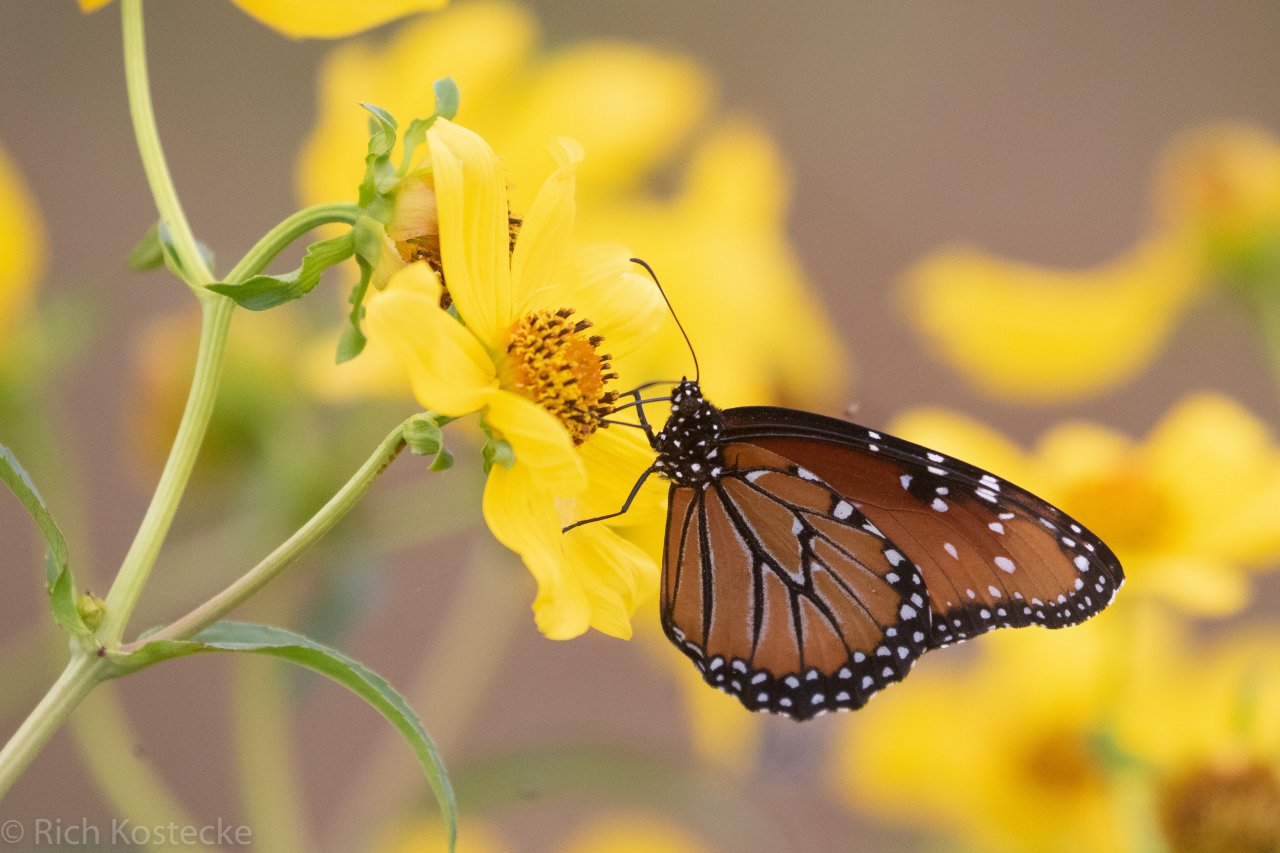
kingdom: Animalia
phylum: Arthropoda
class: Insecta
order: Lepidoptera
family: Nymphalidae
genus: Danaus
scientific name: Danaus gilippus
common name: Queen
